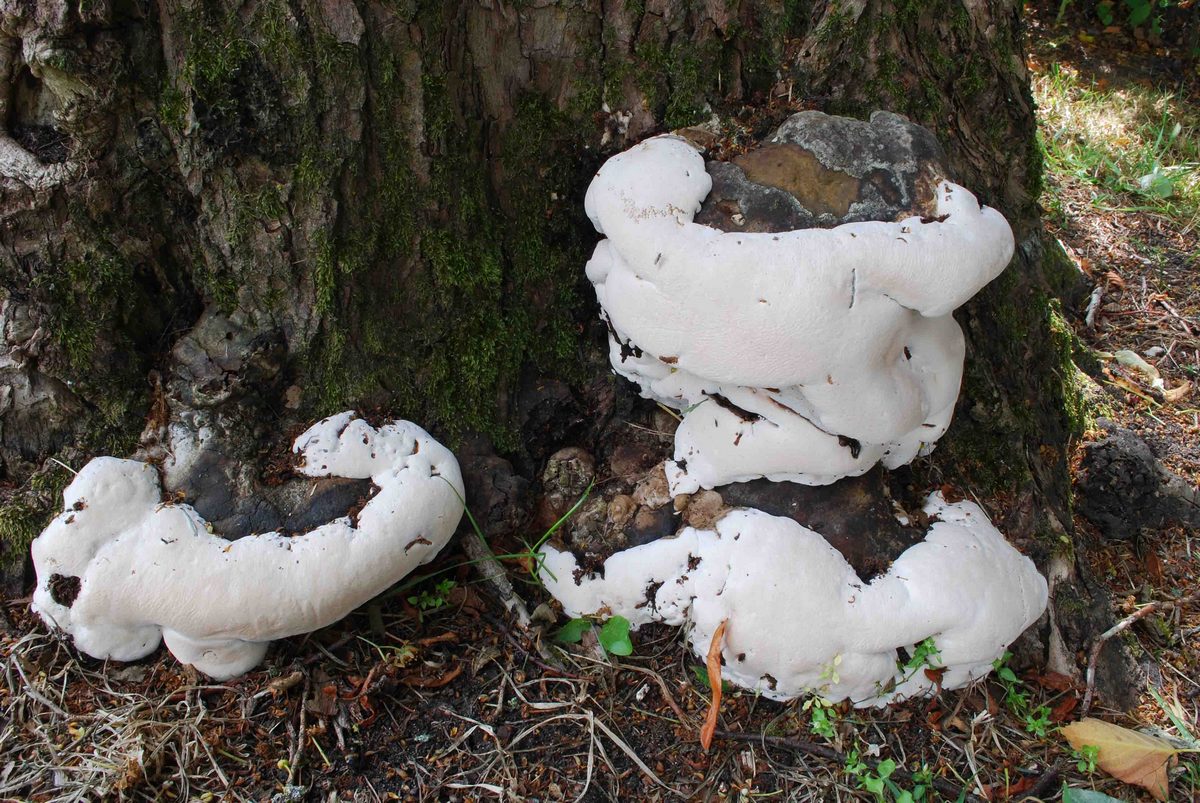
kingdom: Fungi
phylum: Basidiomycota
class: Agaricomycetes
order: Polyporales
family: Polyporaceae
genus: Ganoderma
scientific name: Ganoderma adspersum
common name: grov lakporesvamp
